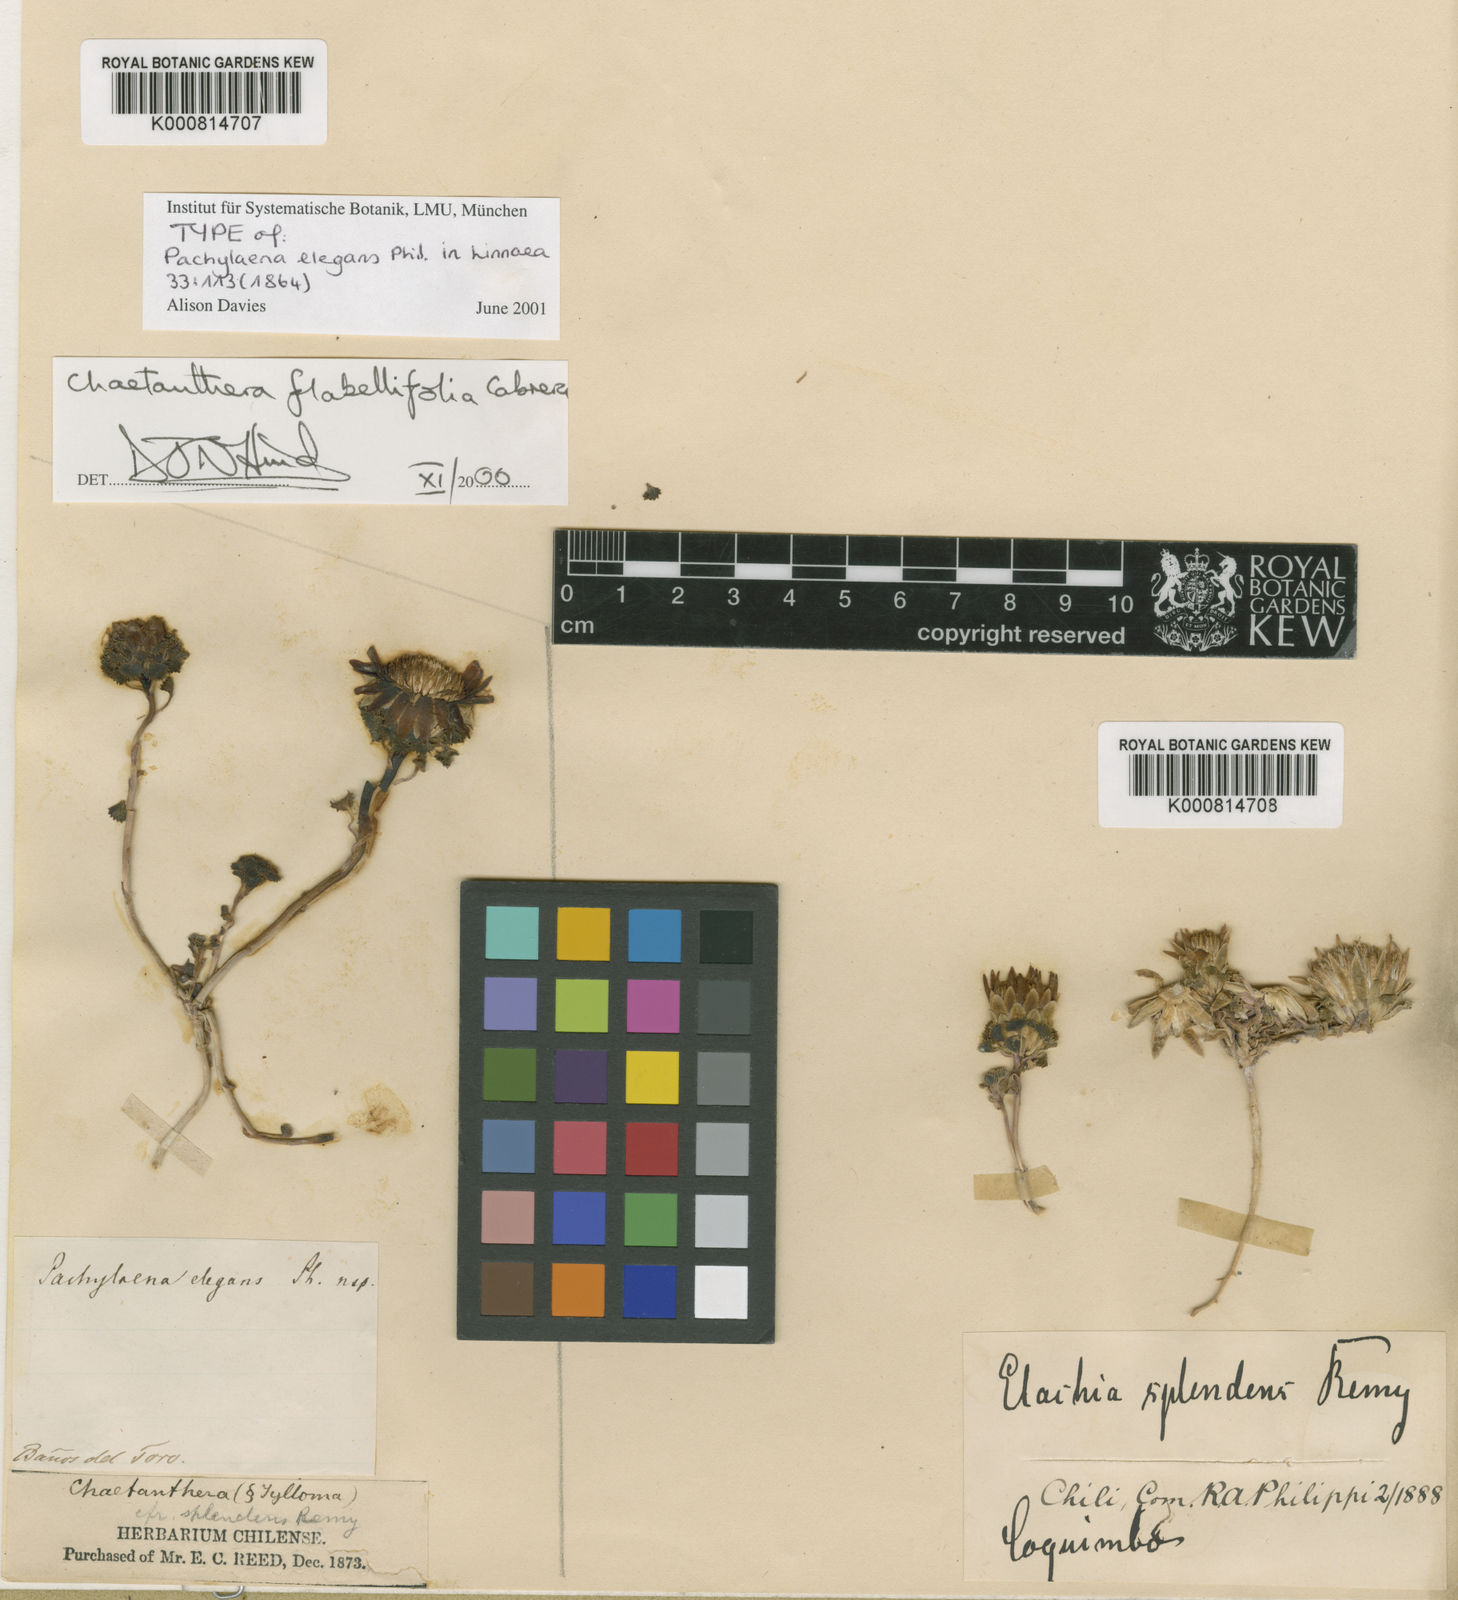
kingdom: Plantae
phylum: Tracheophyta
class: Magnoliopsida
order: Asterales
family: Asteraceae
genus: Chaetanthera
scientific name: Chaetanthera flabellifolia
